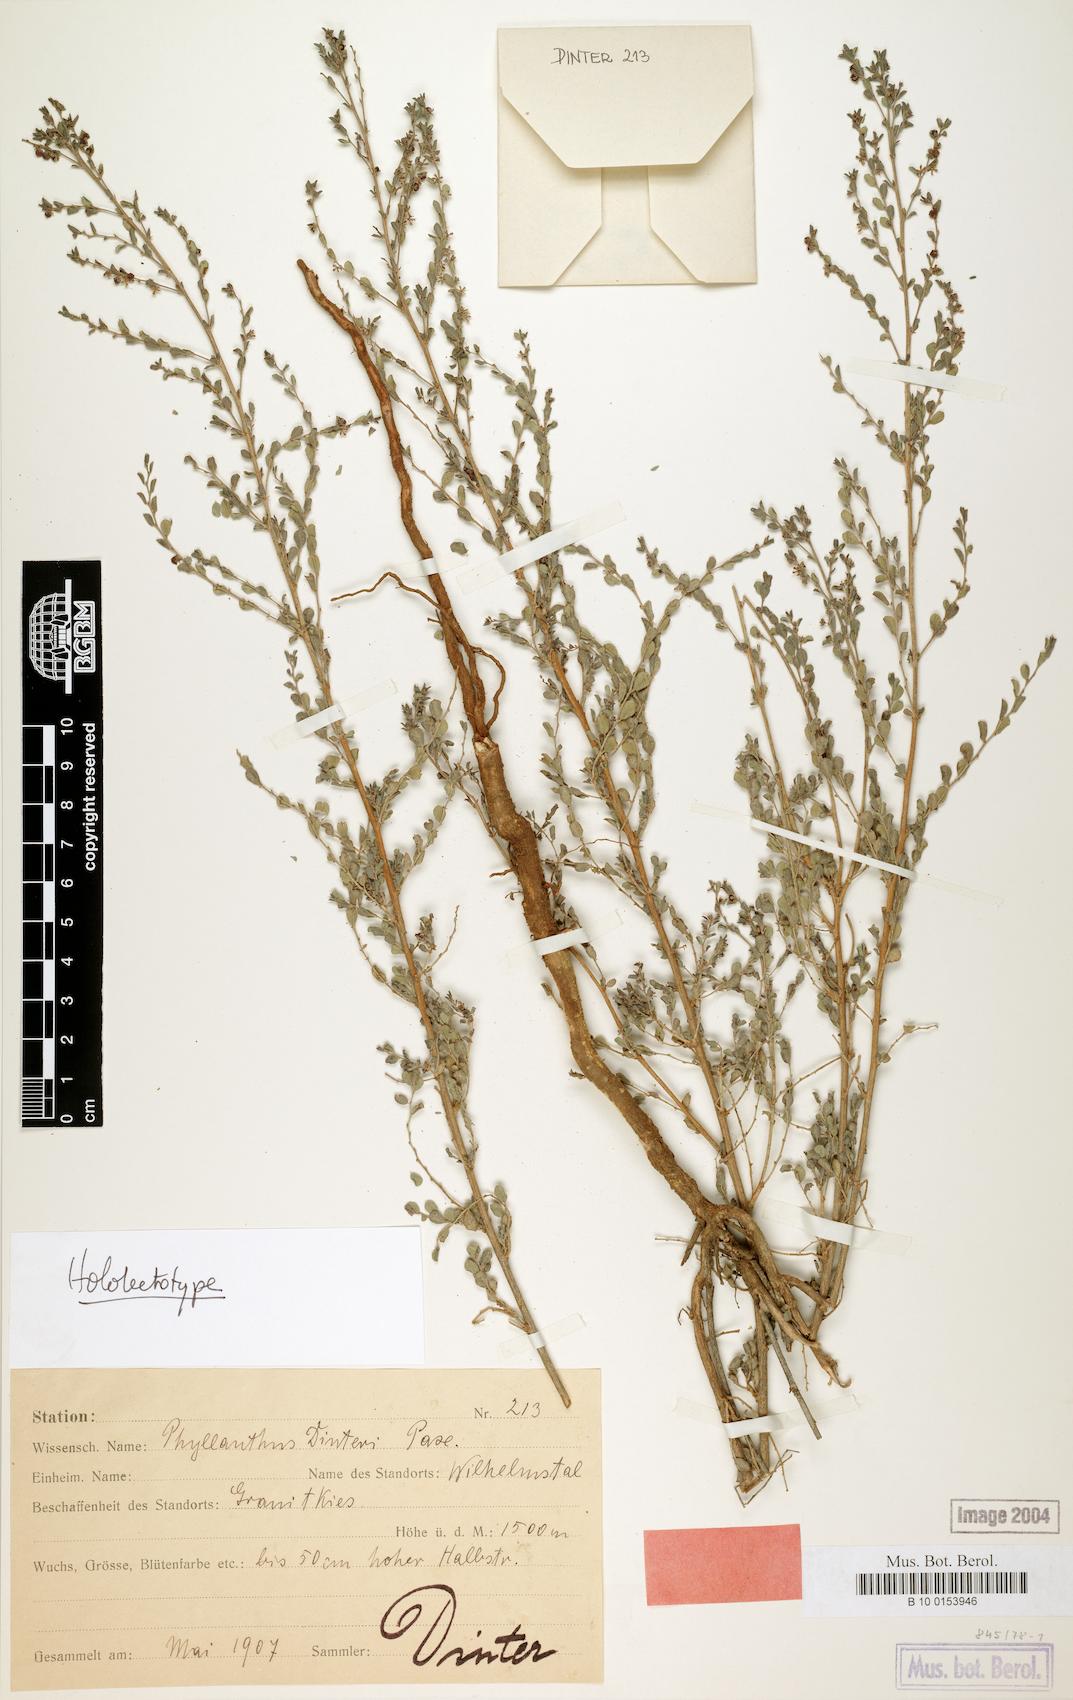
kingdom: Plantae
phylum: Tracheophyta
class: Magnoliopsida
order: Malpighiales
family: Phyllanthaceae
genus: Phyllanthus
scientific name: Phyllanthus dinteri
